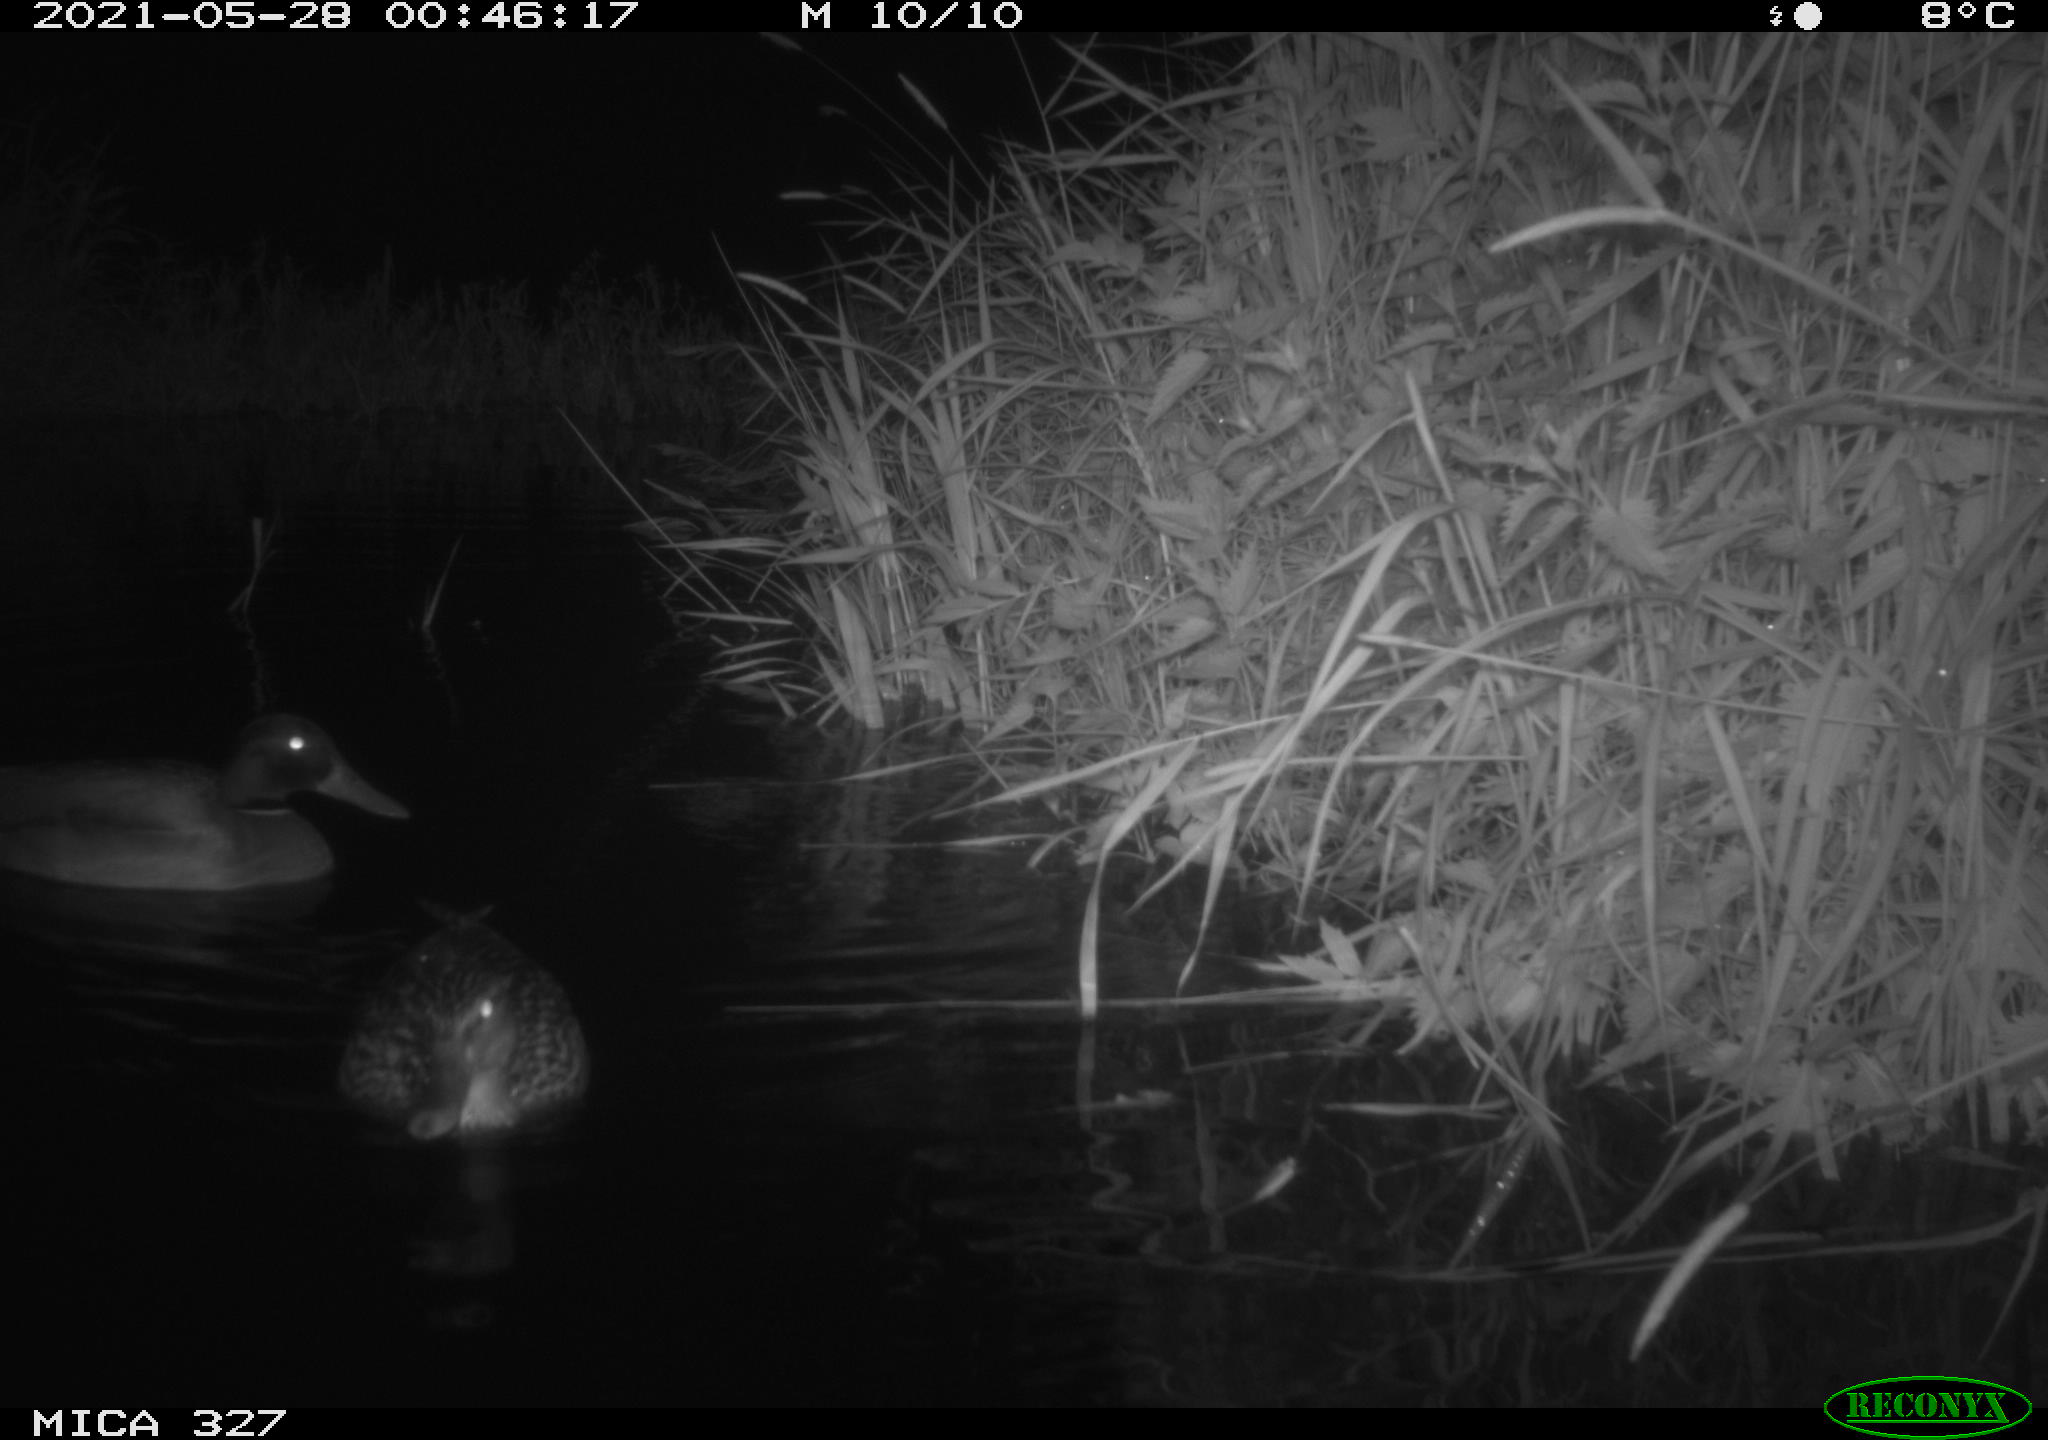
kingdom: Animalia
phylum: Chordata
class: Aves
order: Anseriformes
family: Anatidae
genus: Anas
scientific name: Anas platyrhynchos
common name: Mallard
